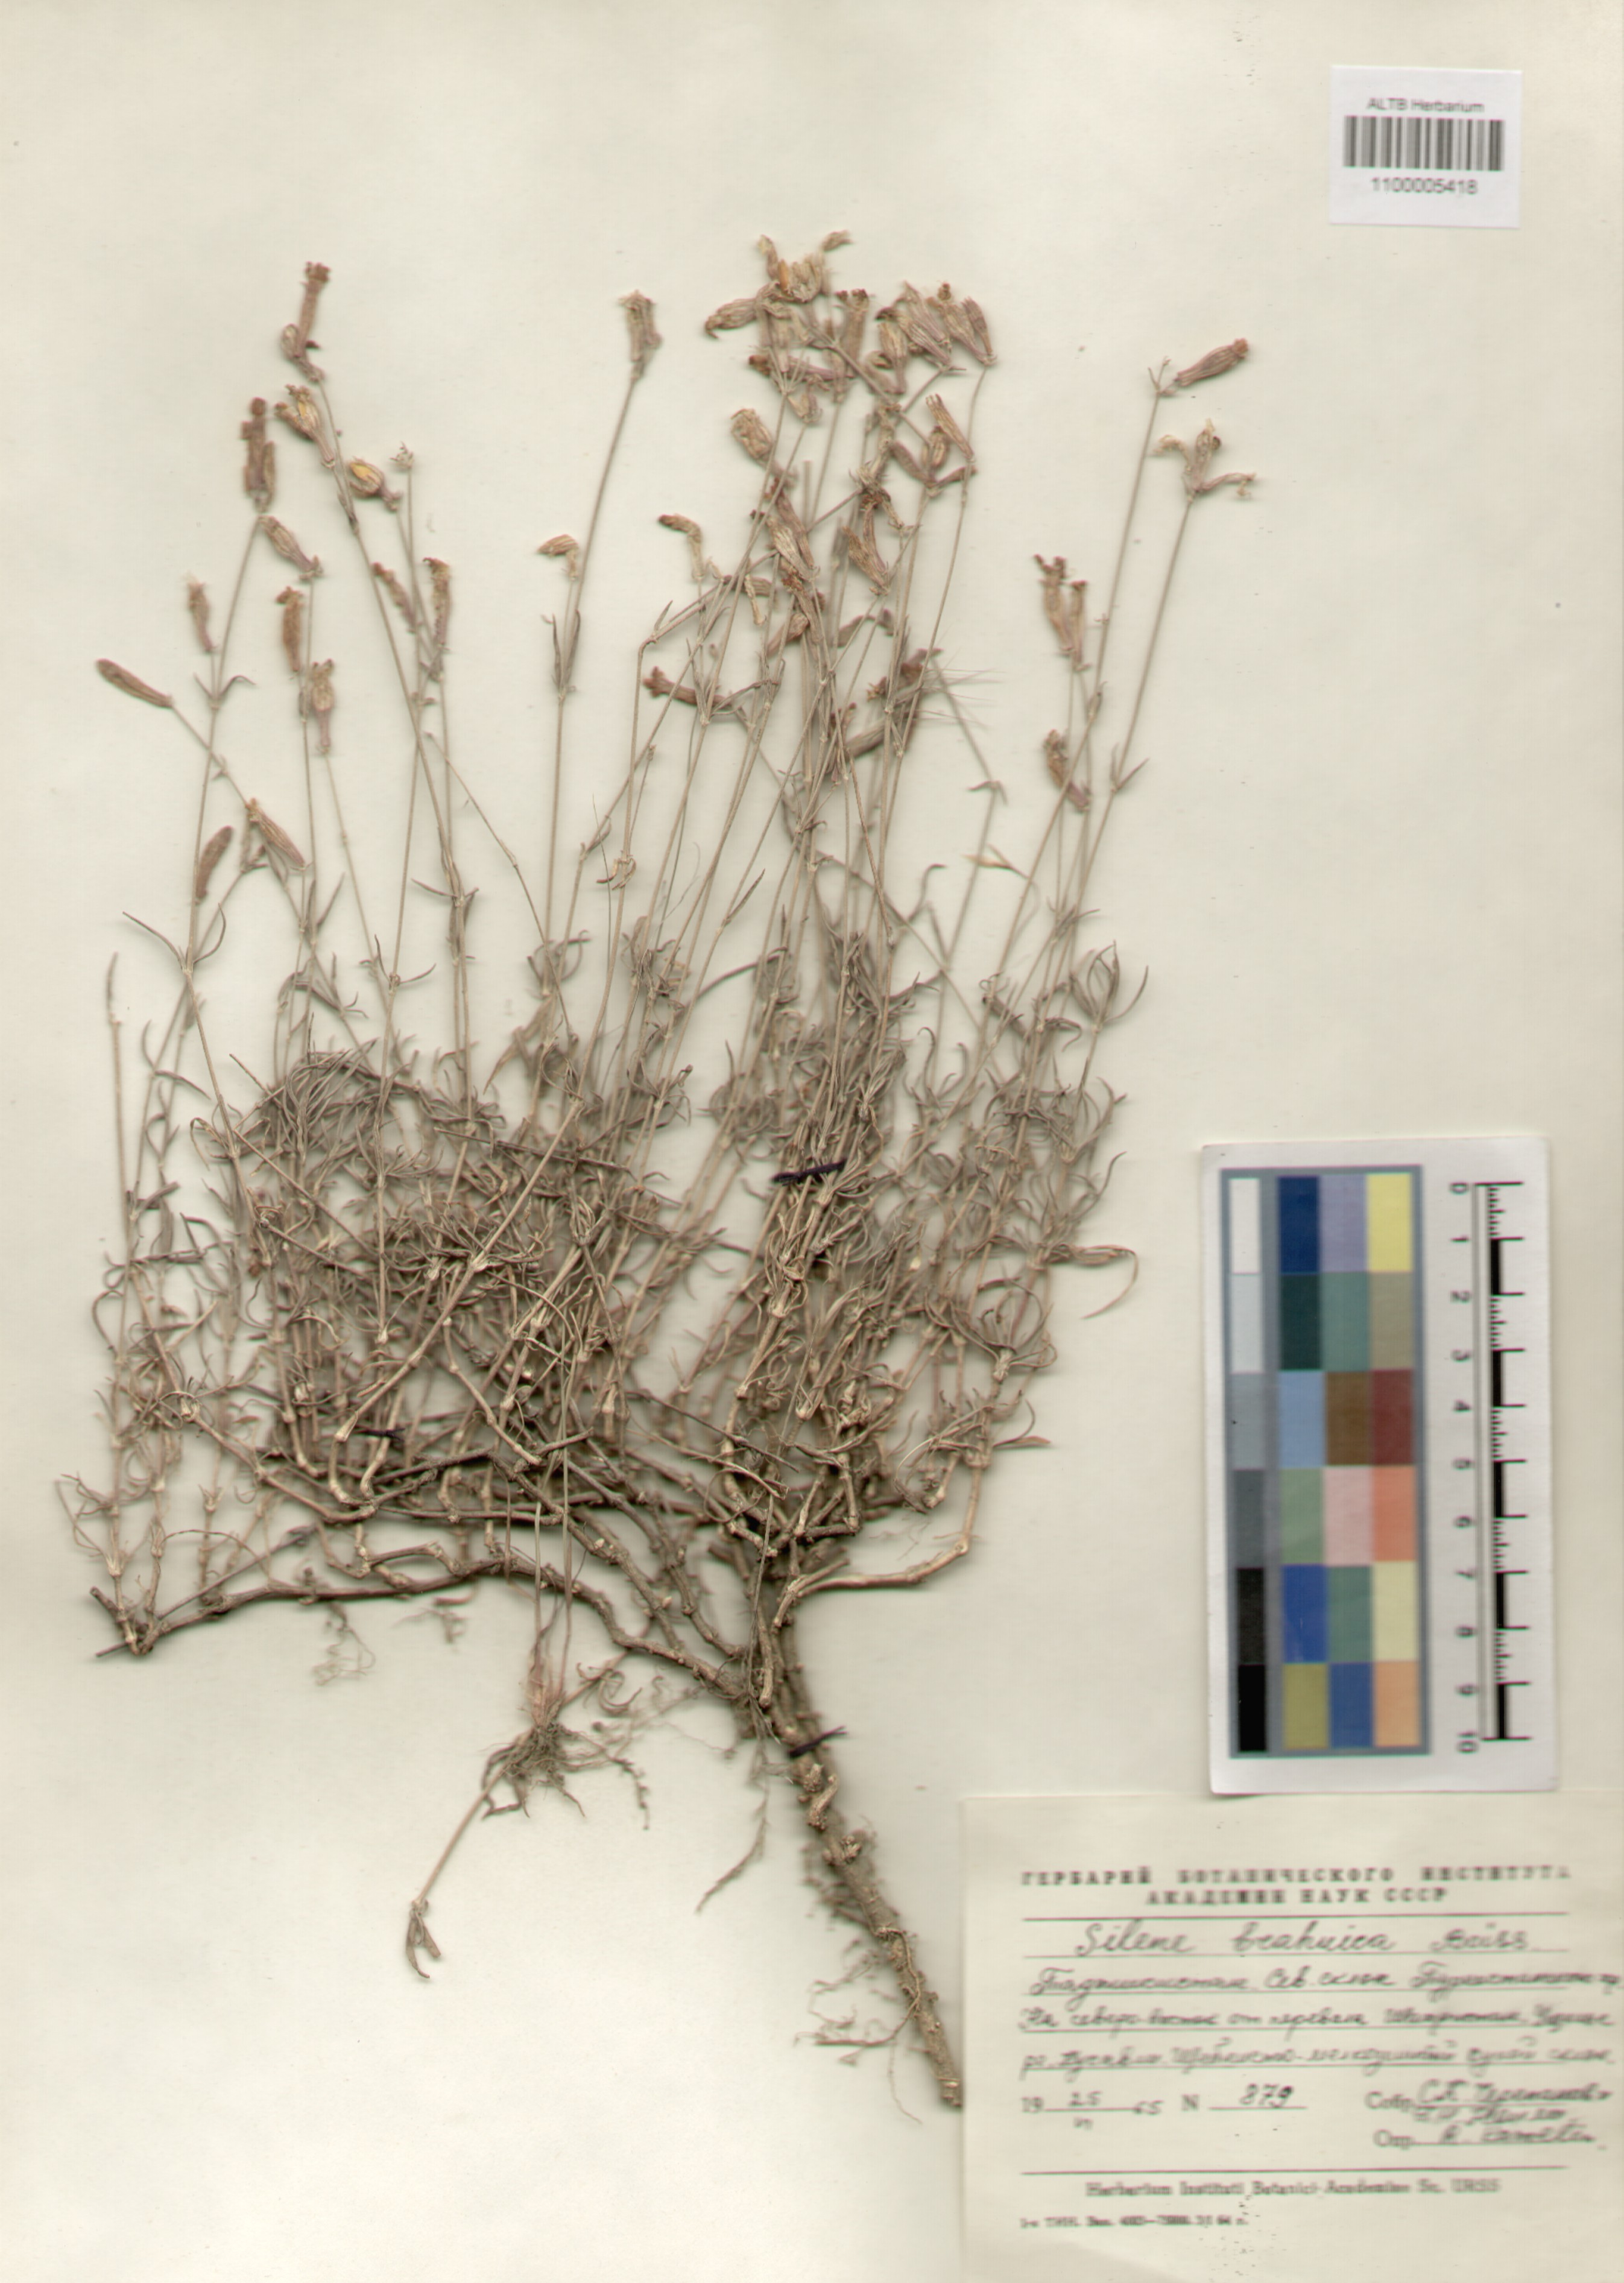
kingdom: Plantae
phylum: Tracheophyta
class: Magnoliopsida
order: Caryophyllales
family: Caryophyllaceae
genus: Silene
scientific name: Silene brahuica
